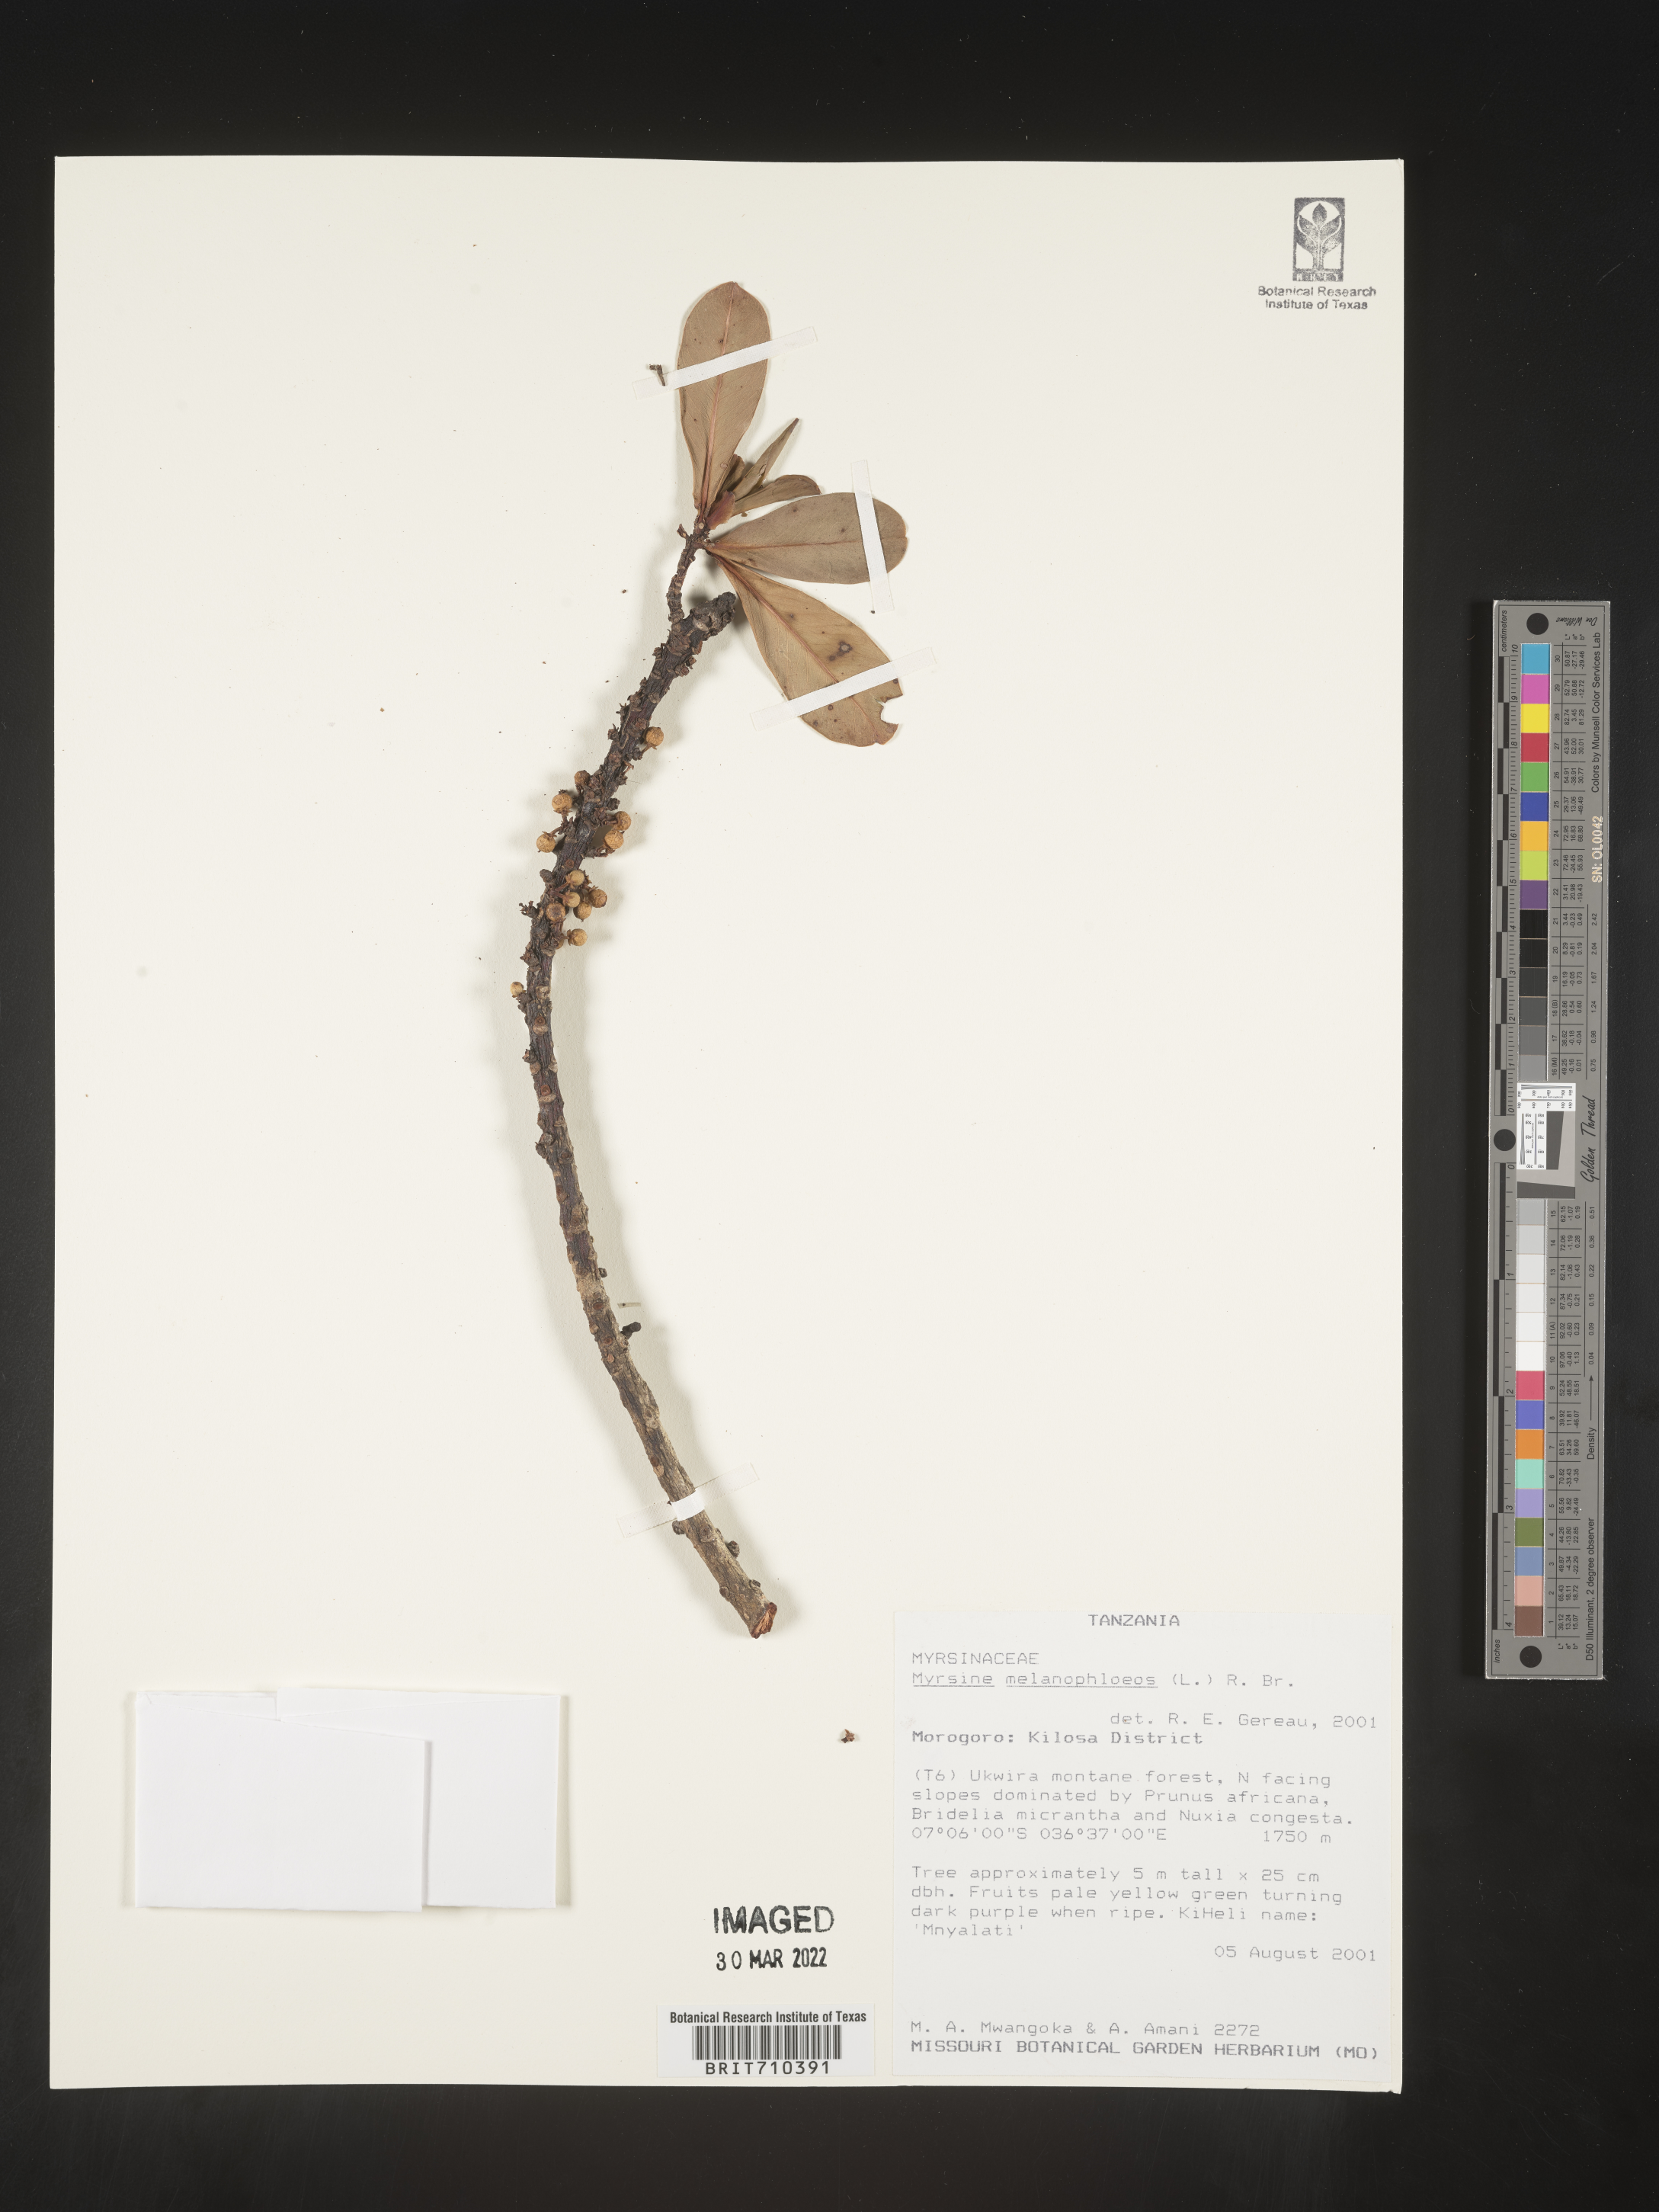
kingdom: Plantae
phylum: Tracheophyta
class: Magnoliopsida
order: Ericales
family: Primulaceae
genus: Myrsine
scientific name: Myrsine
